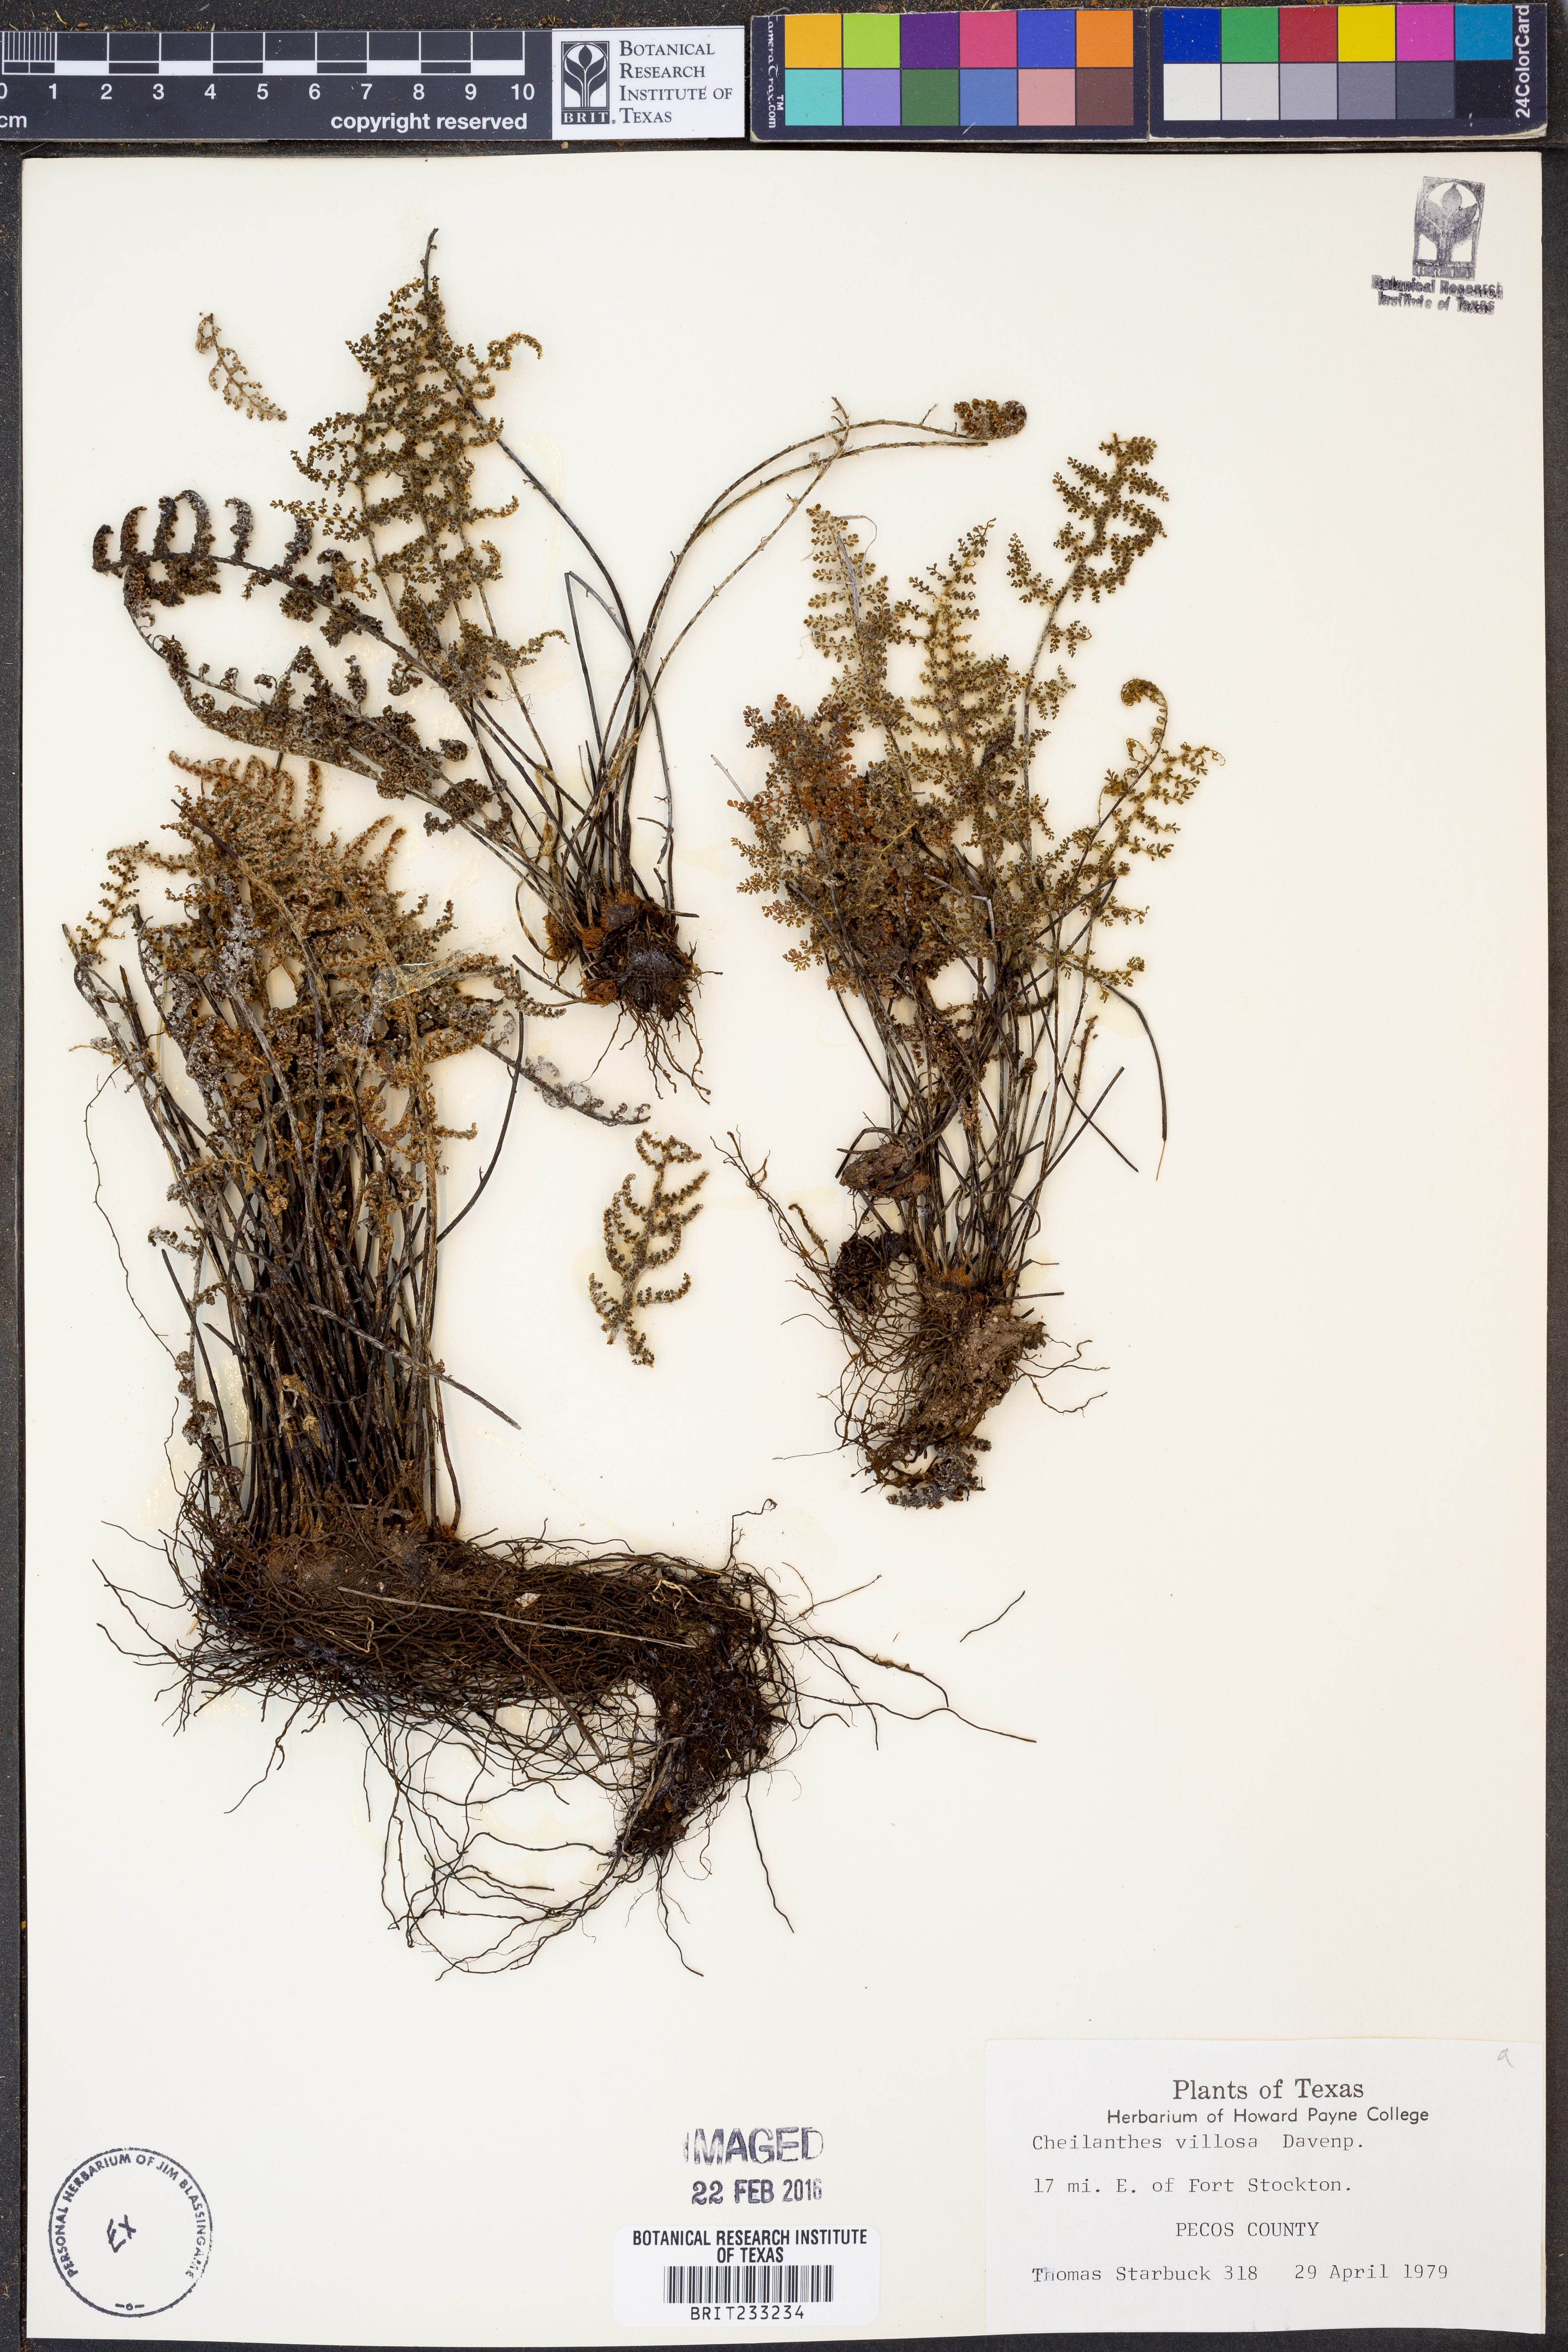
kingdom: Plantae
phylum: Tracheophyta
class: Polypodiopsida
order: Polypodiales
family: Pteridaceae
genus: Myriopteris
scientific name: Myriopteris windhamii
